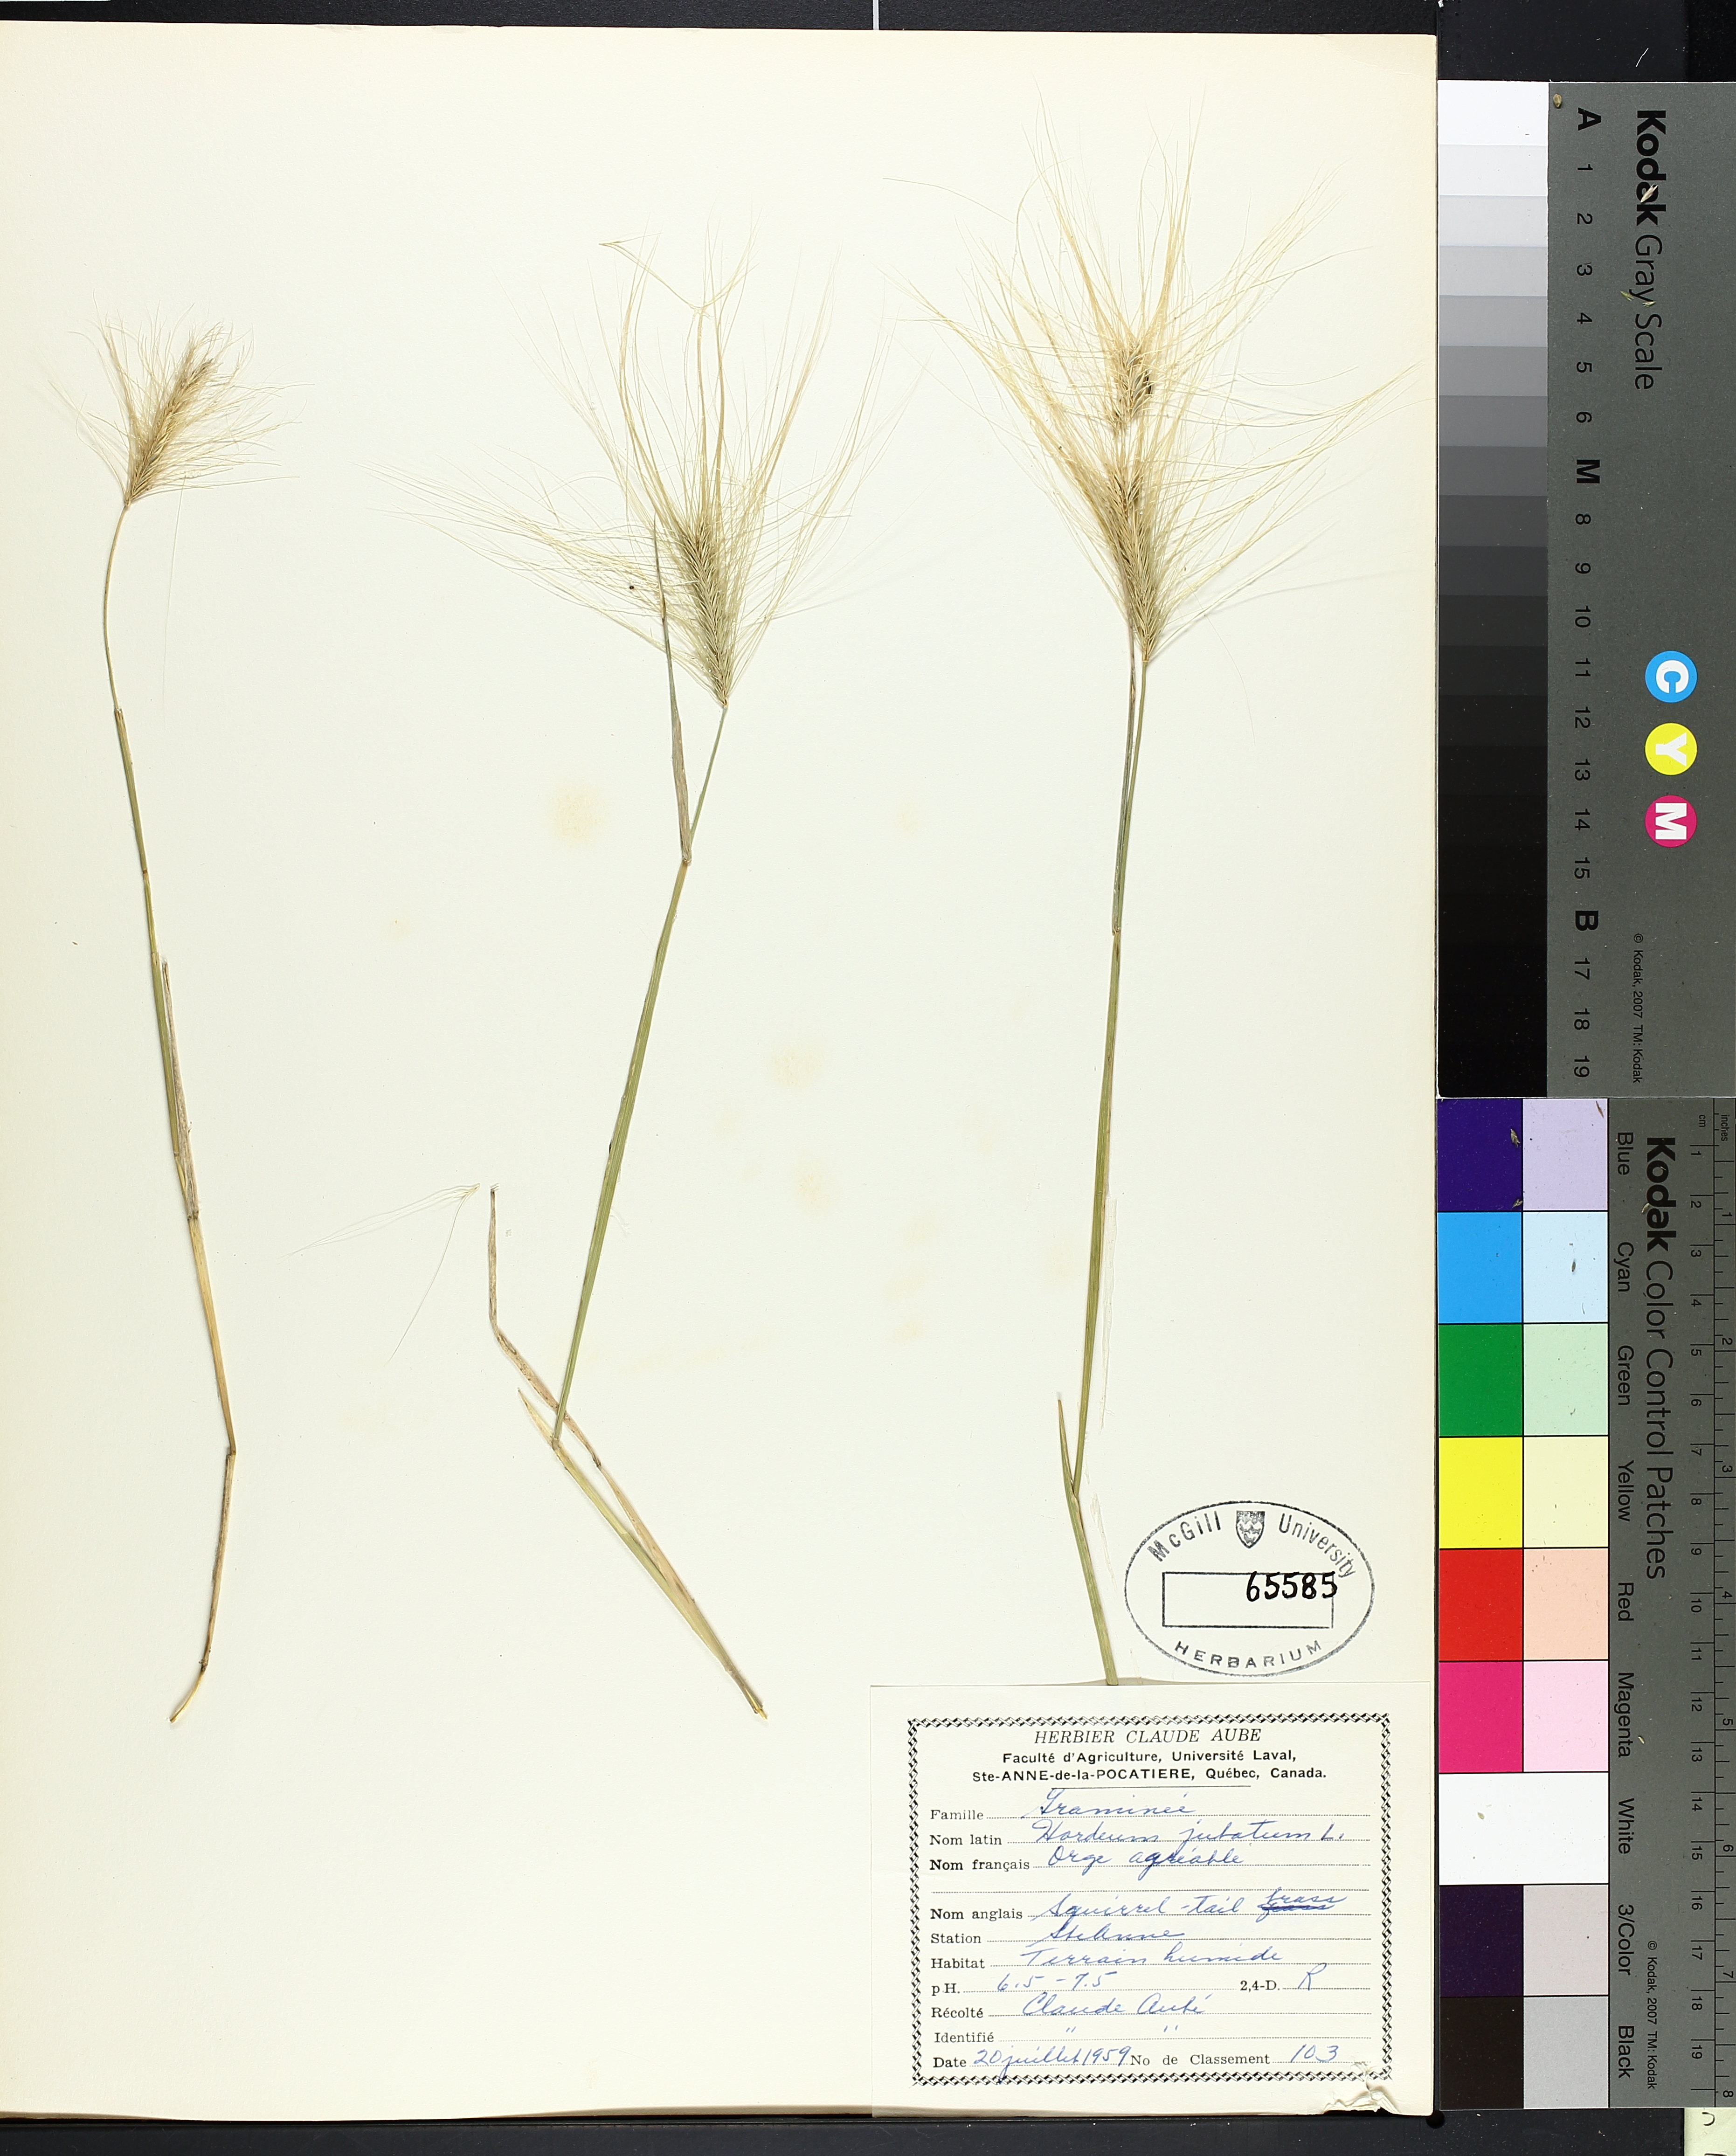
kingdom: Plantae
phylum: Tracheophyta
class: Magnoliopsida
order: Asterales
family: Asteraceae
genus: Ambrosia
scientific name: Ambrosia trifida
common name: Giant ragweed
